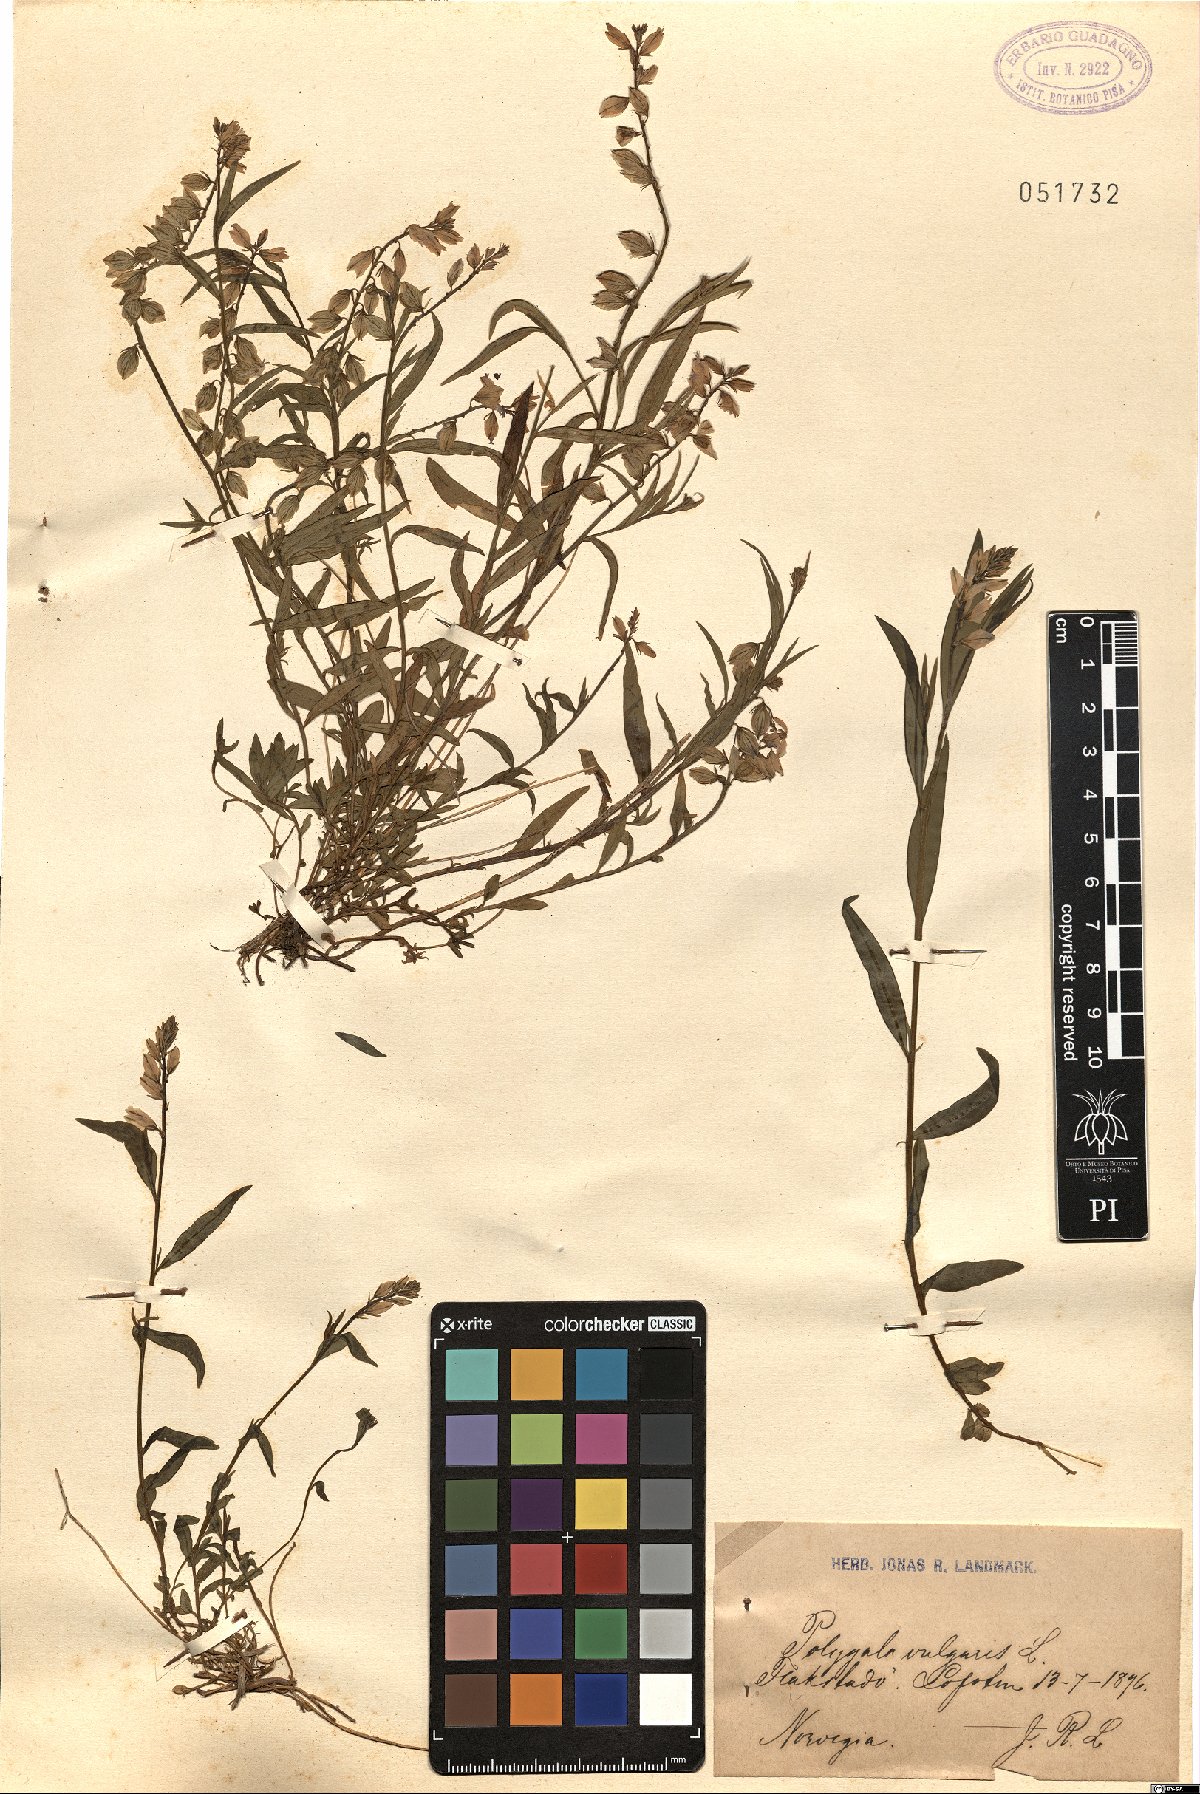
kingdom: Plantae
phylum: Tracheophyta
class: Magnoliopsida
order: Fabales
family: Polygalaceae
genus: Polygala
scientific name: Polygala vulgaris
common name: Common milkwort
